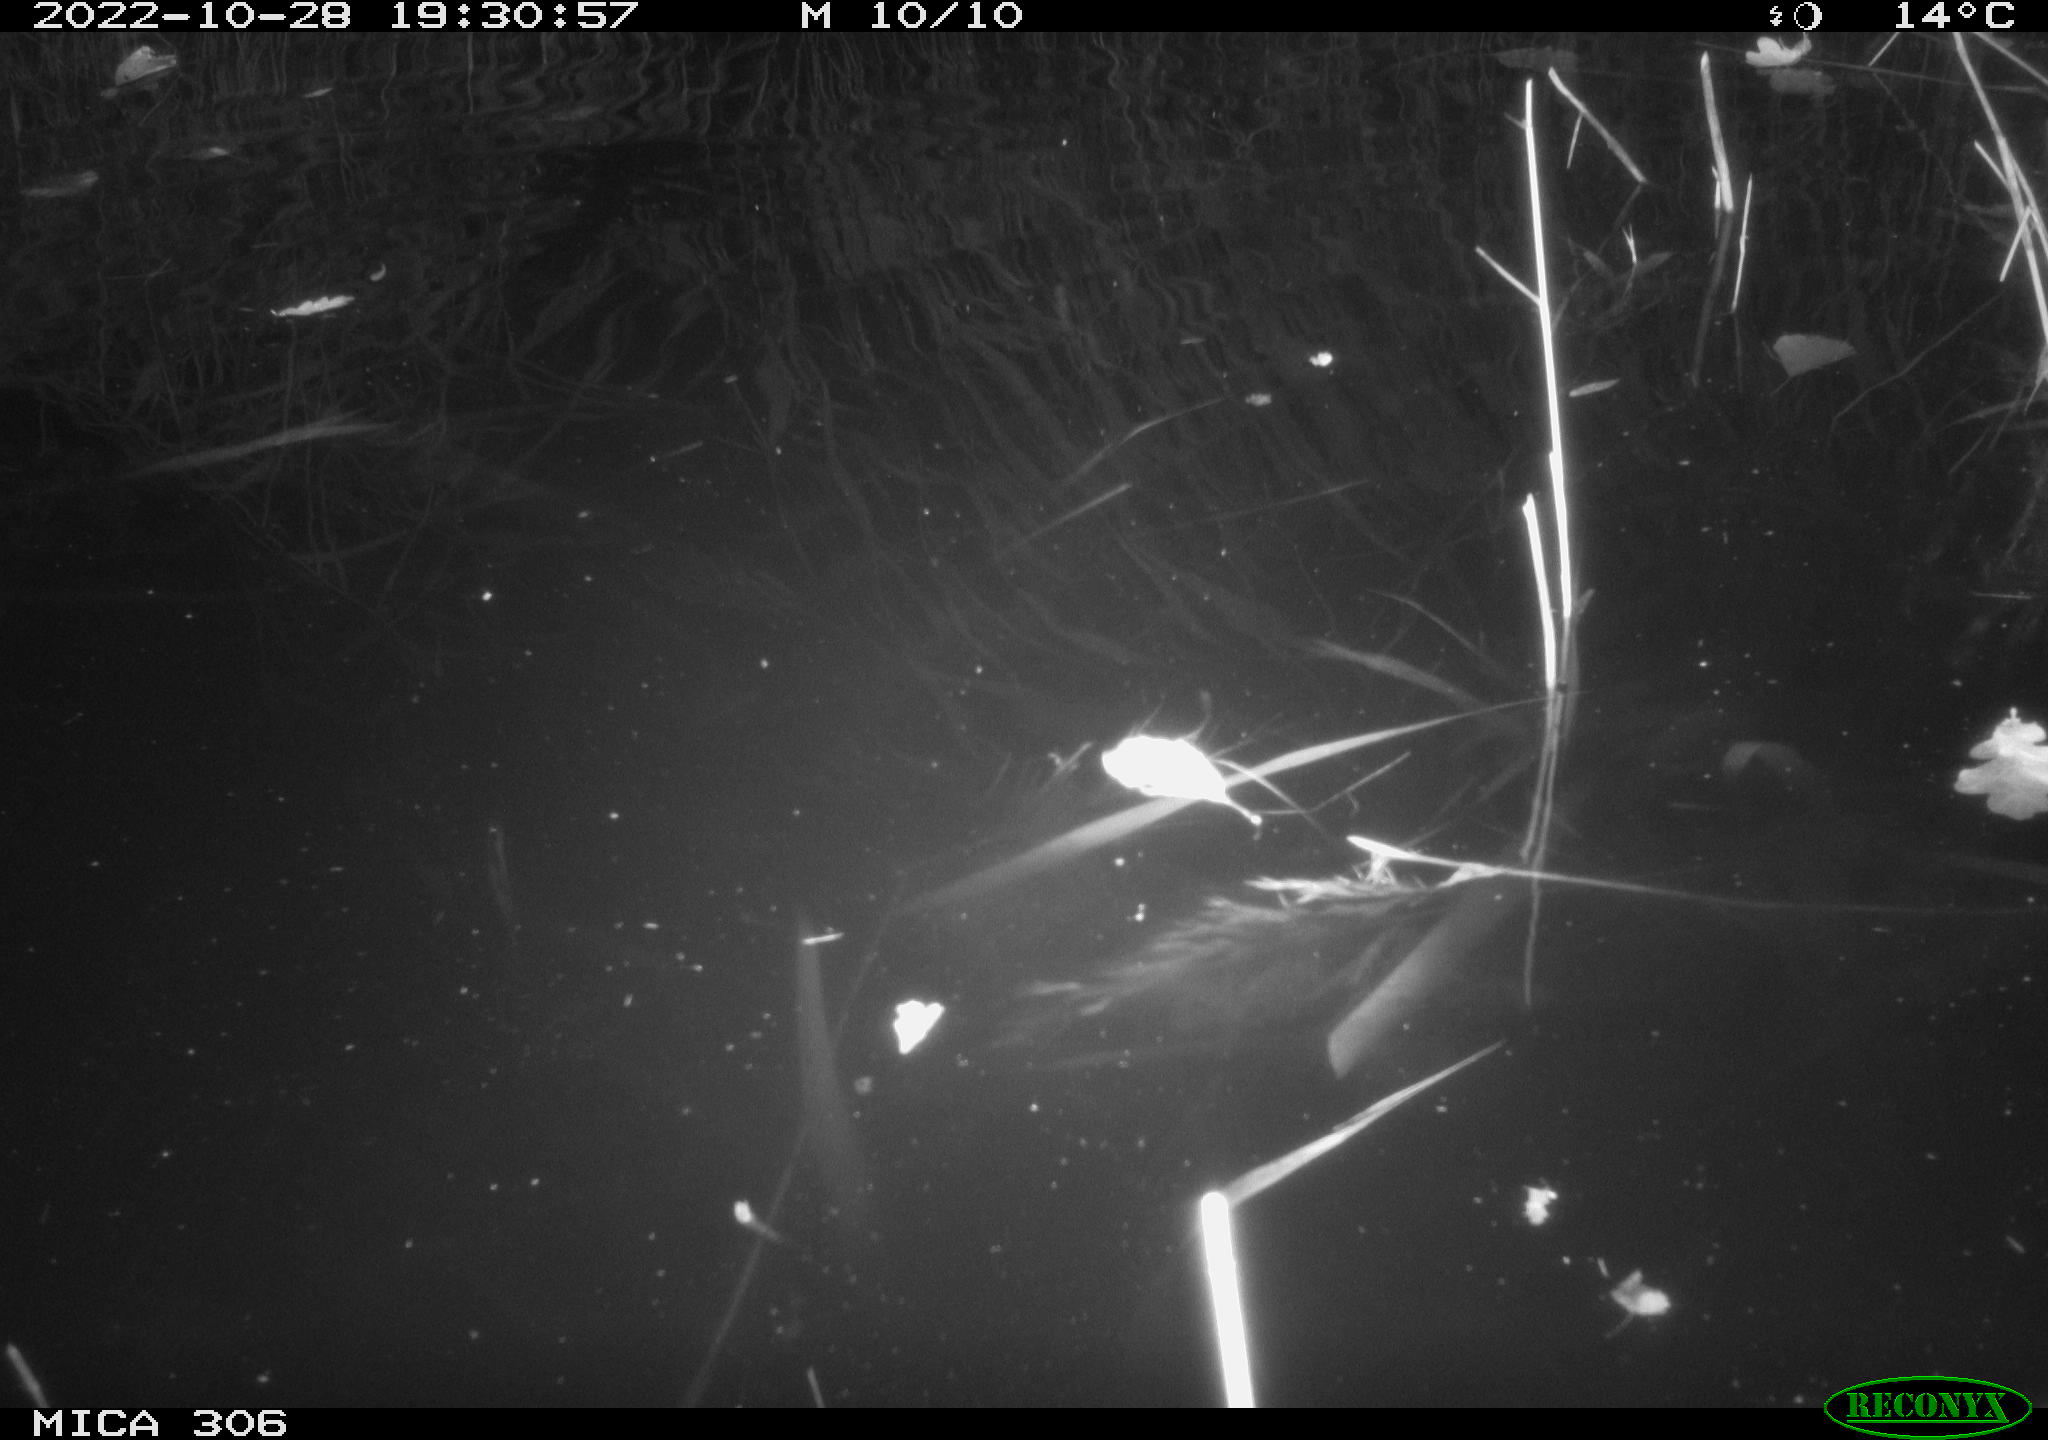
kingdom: Animalia
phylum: Chordata
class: Mammalia
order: Rodentia
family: Muridae
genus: Rattus
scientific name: Rattus norvegicus
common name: Brown rat
